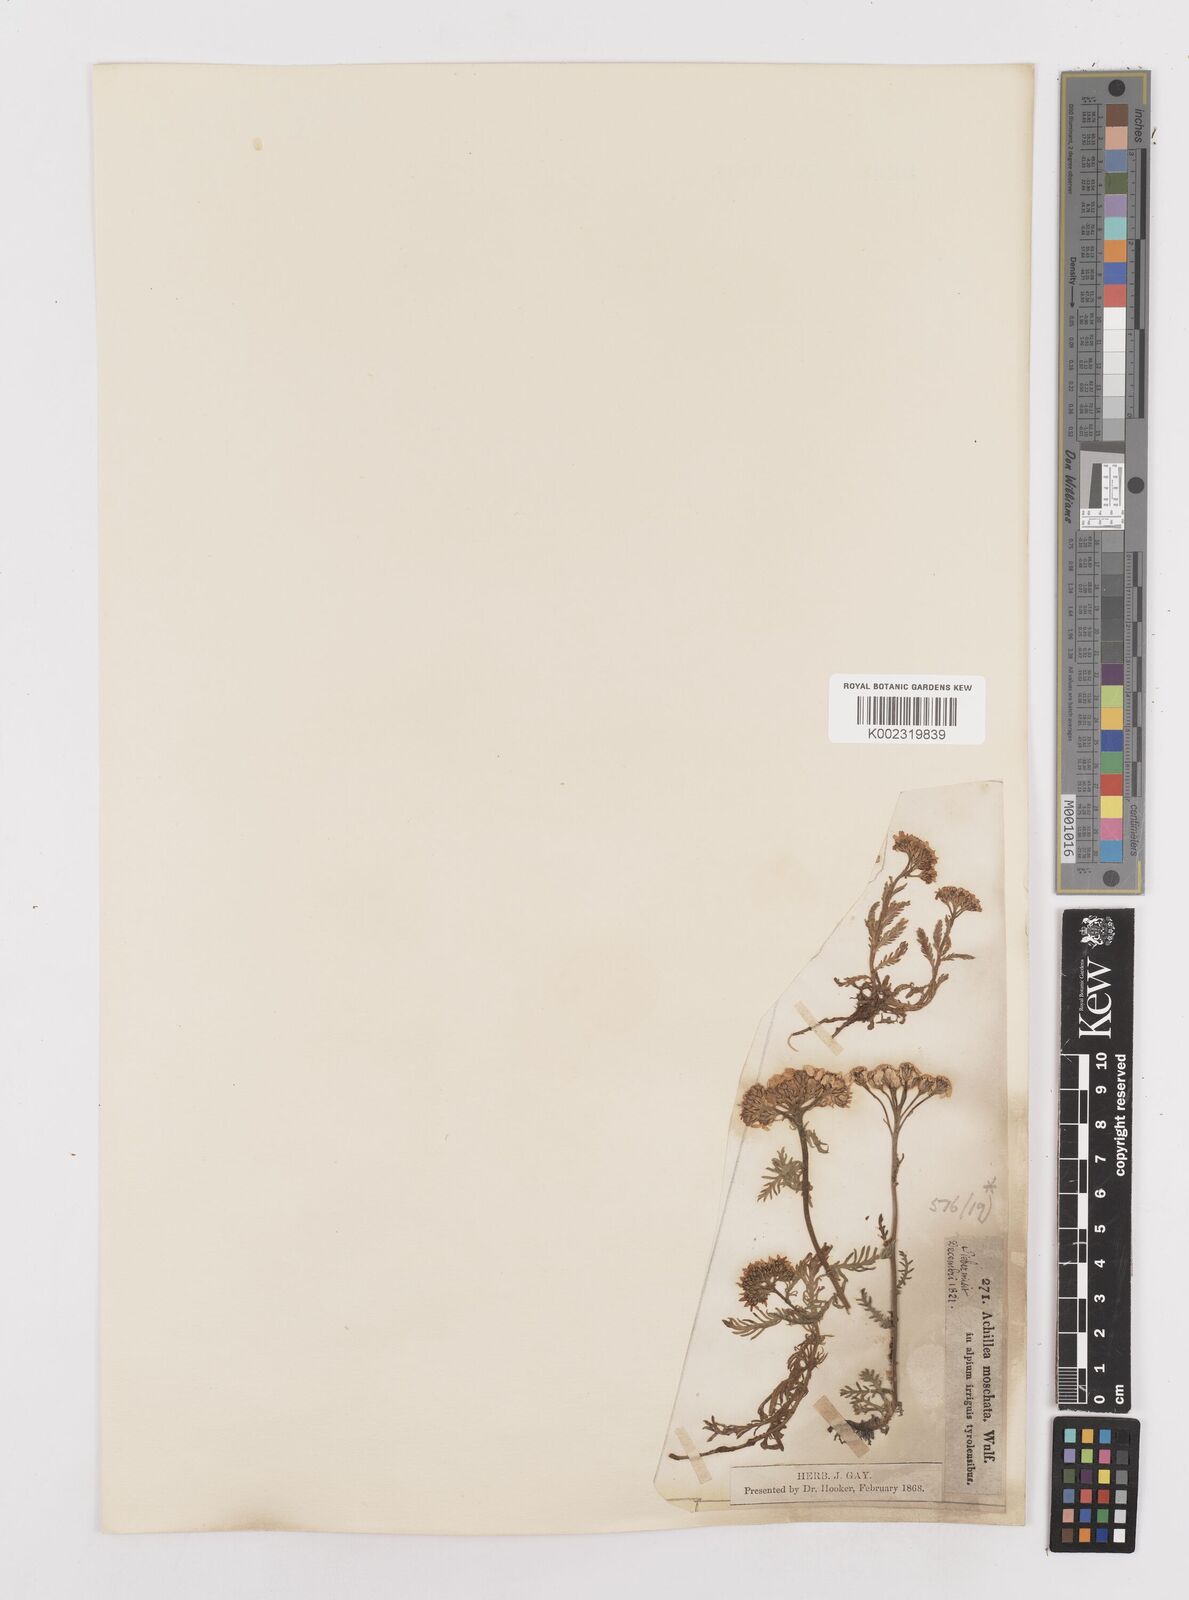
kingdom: Plantae
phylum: Tracheophyta
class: Magnoliopsida
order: Asterales
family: Asteraceae
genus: Achillea
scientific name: Achillea erba-rotta
